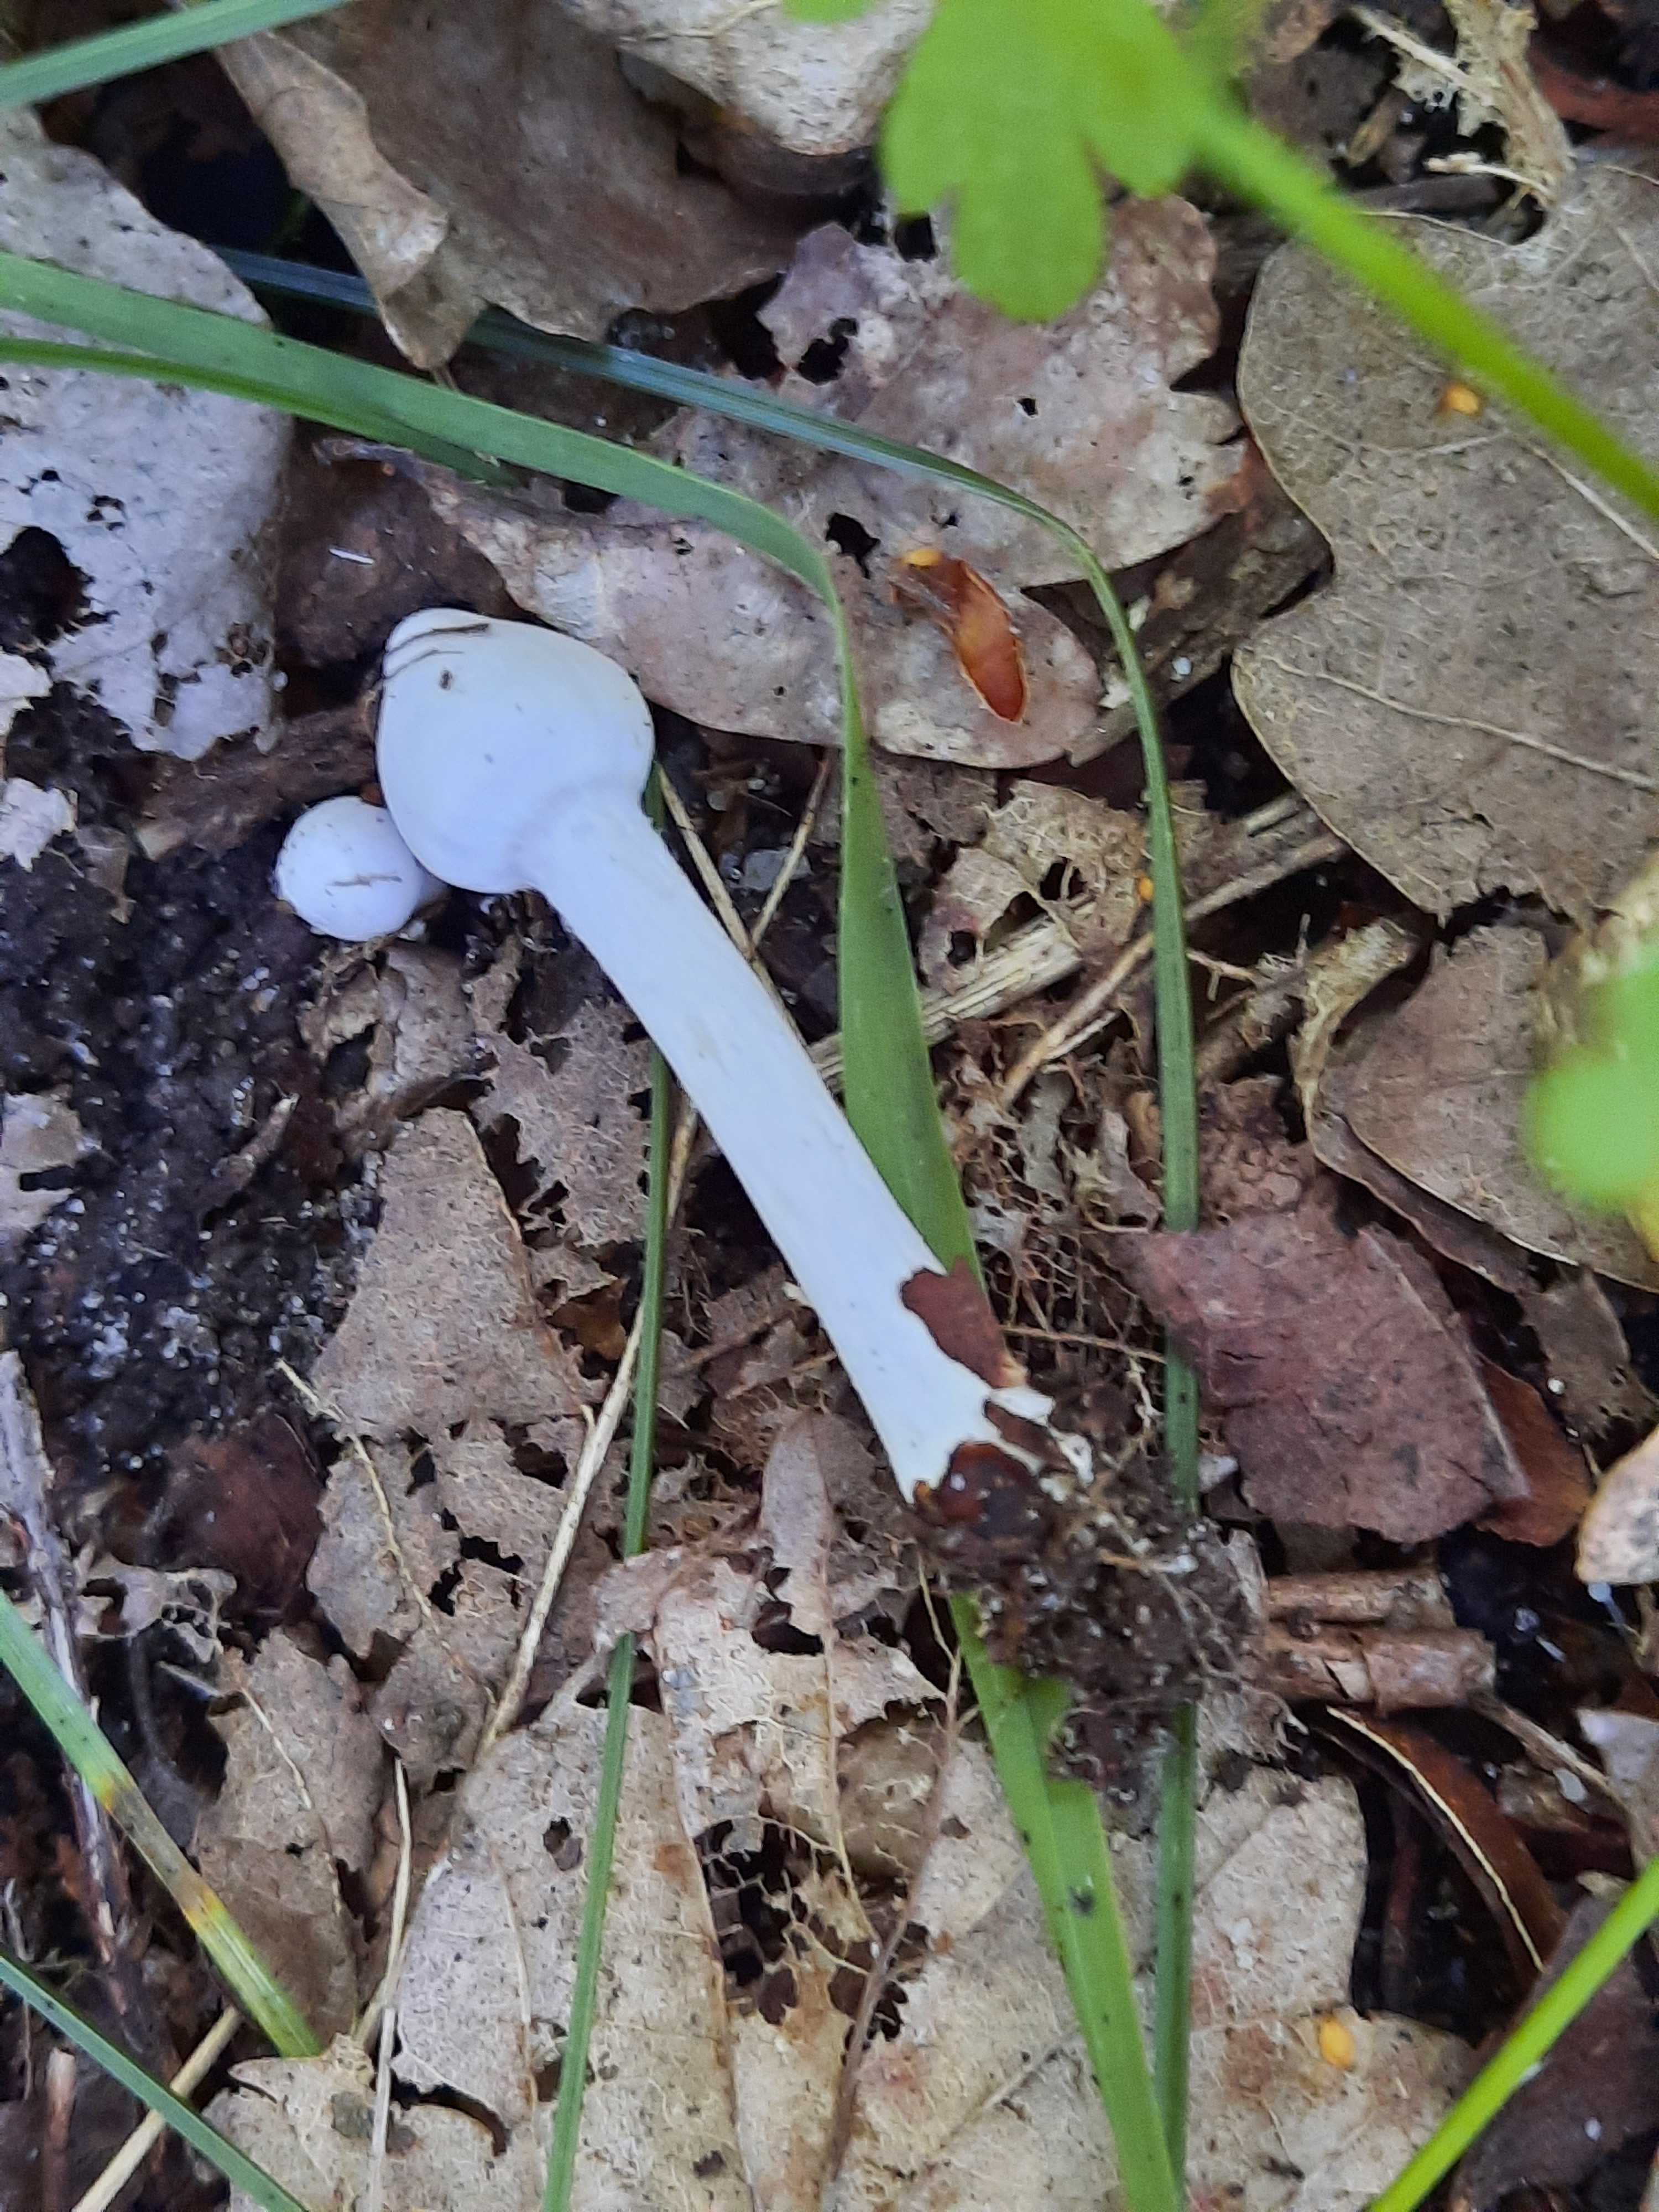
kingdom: Fungi
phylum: Basidiomycota
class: Agaricomycetes
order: Agaricales
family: Inocybaceae
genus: Inocybe
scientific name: Inocybe
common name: almindelig trævlhat
